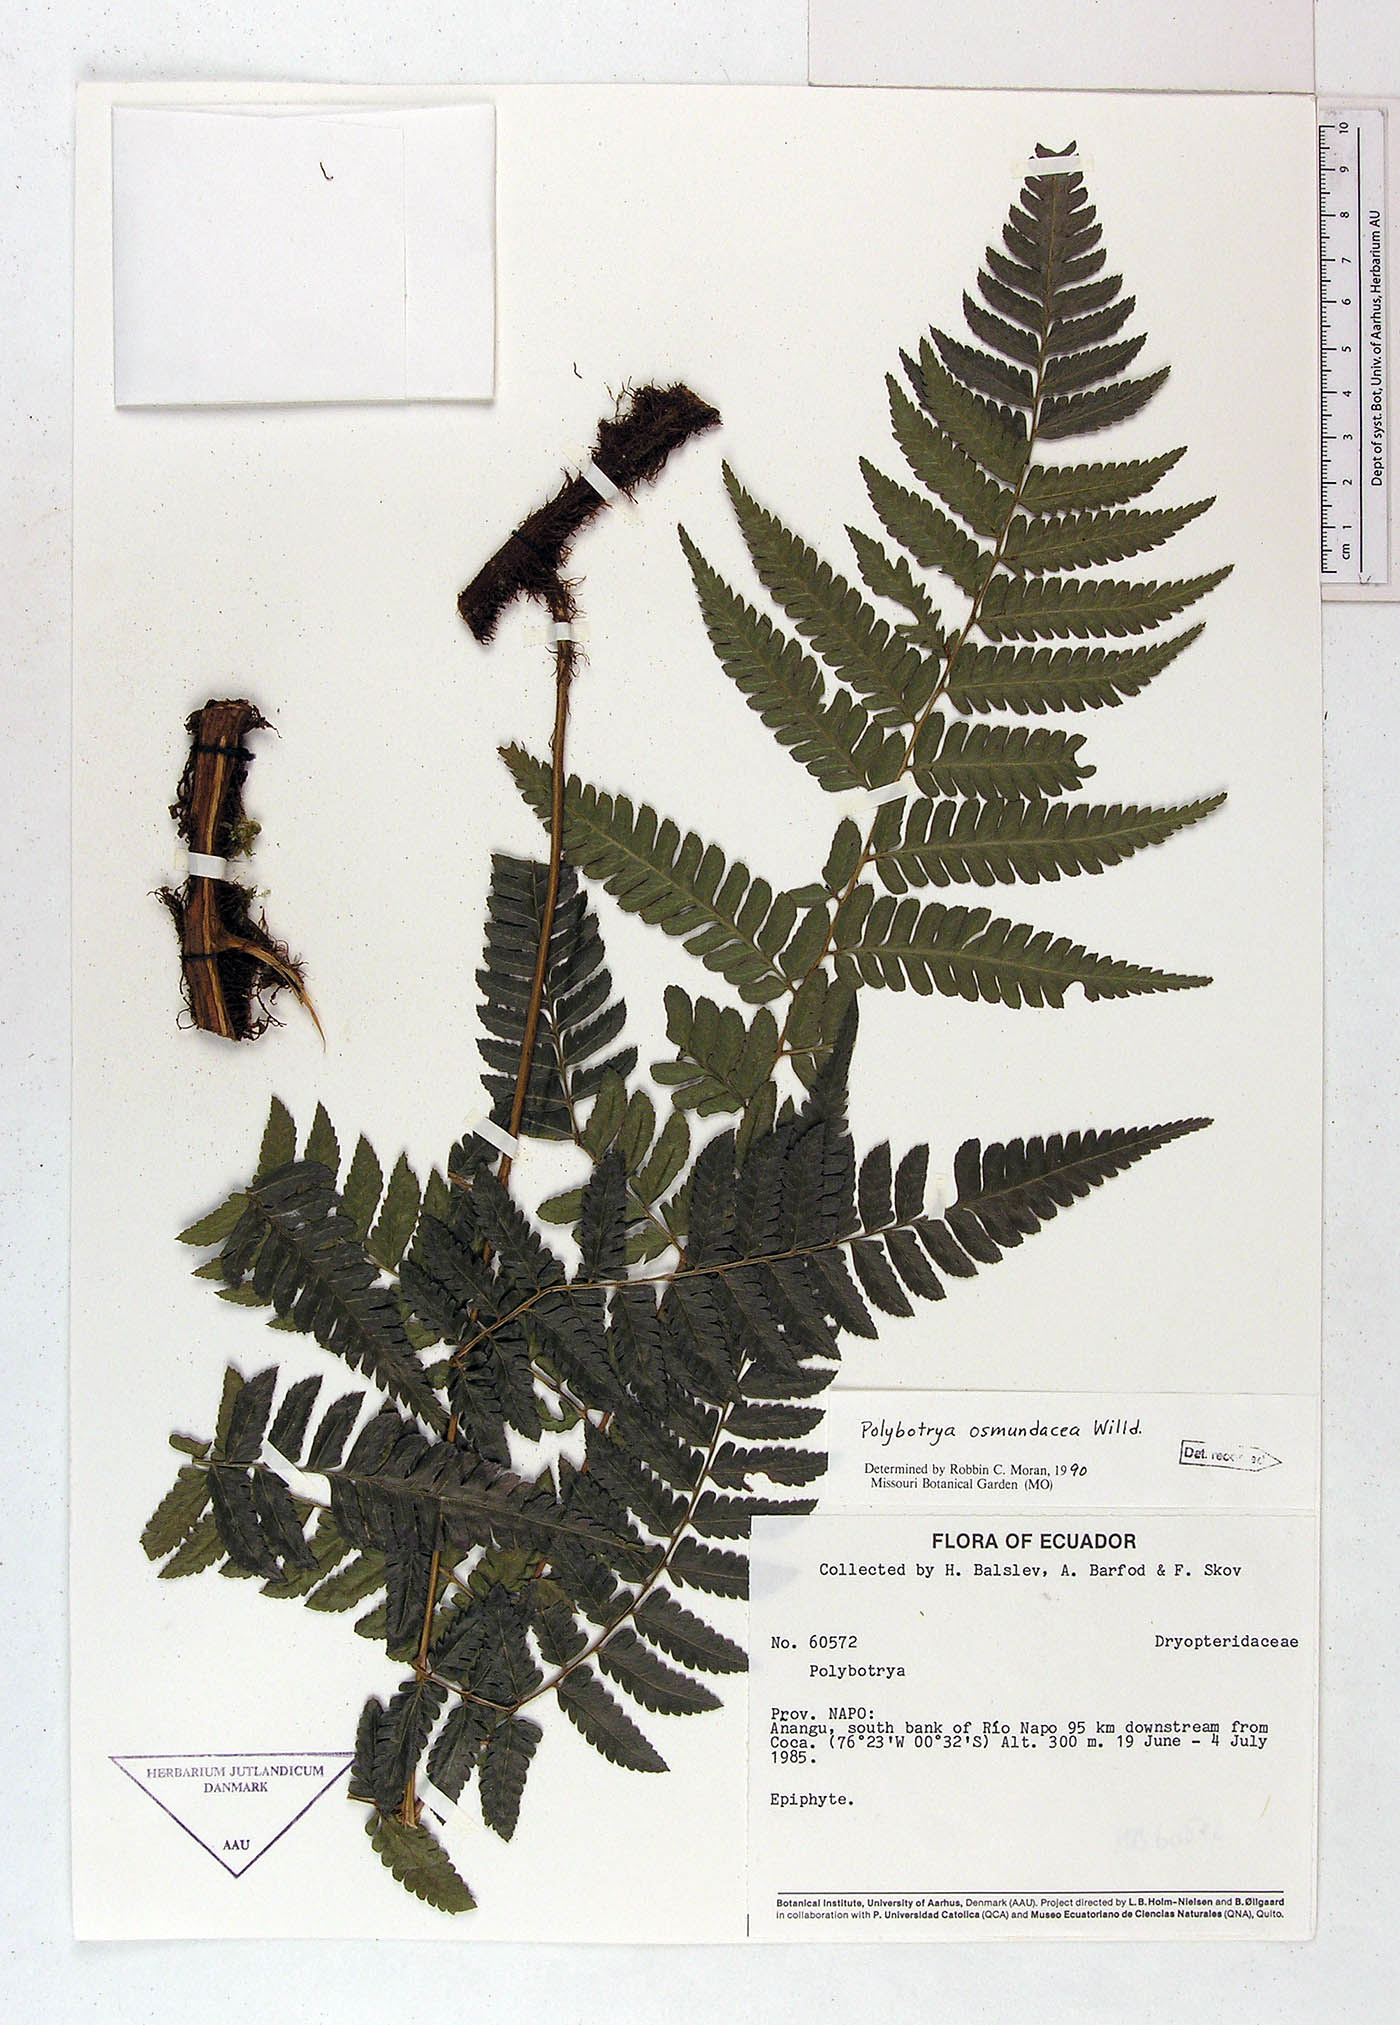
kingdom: Plantae
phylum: Tracheophyta
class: Polypodiopsida
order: Polypodiales
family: Dryopteridaceae
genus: Polybotrya
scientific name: Polybotrya osmundacea
